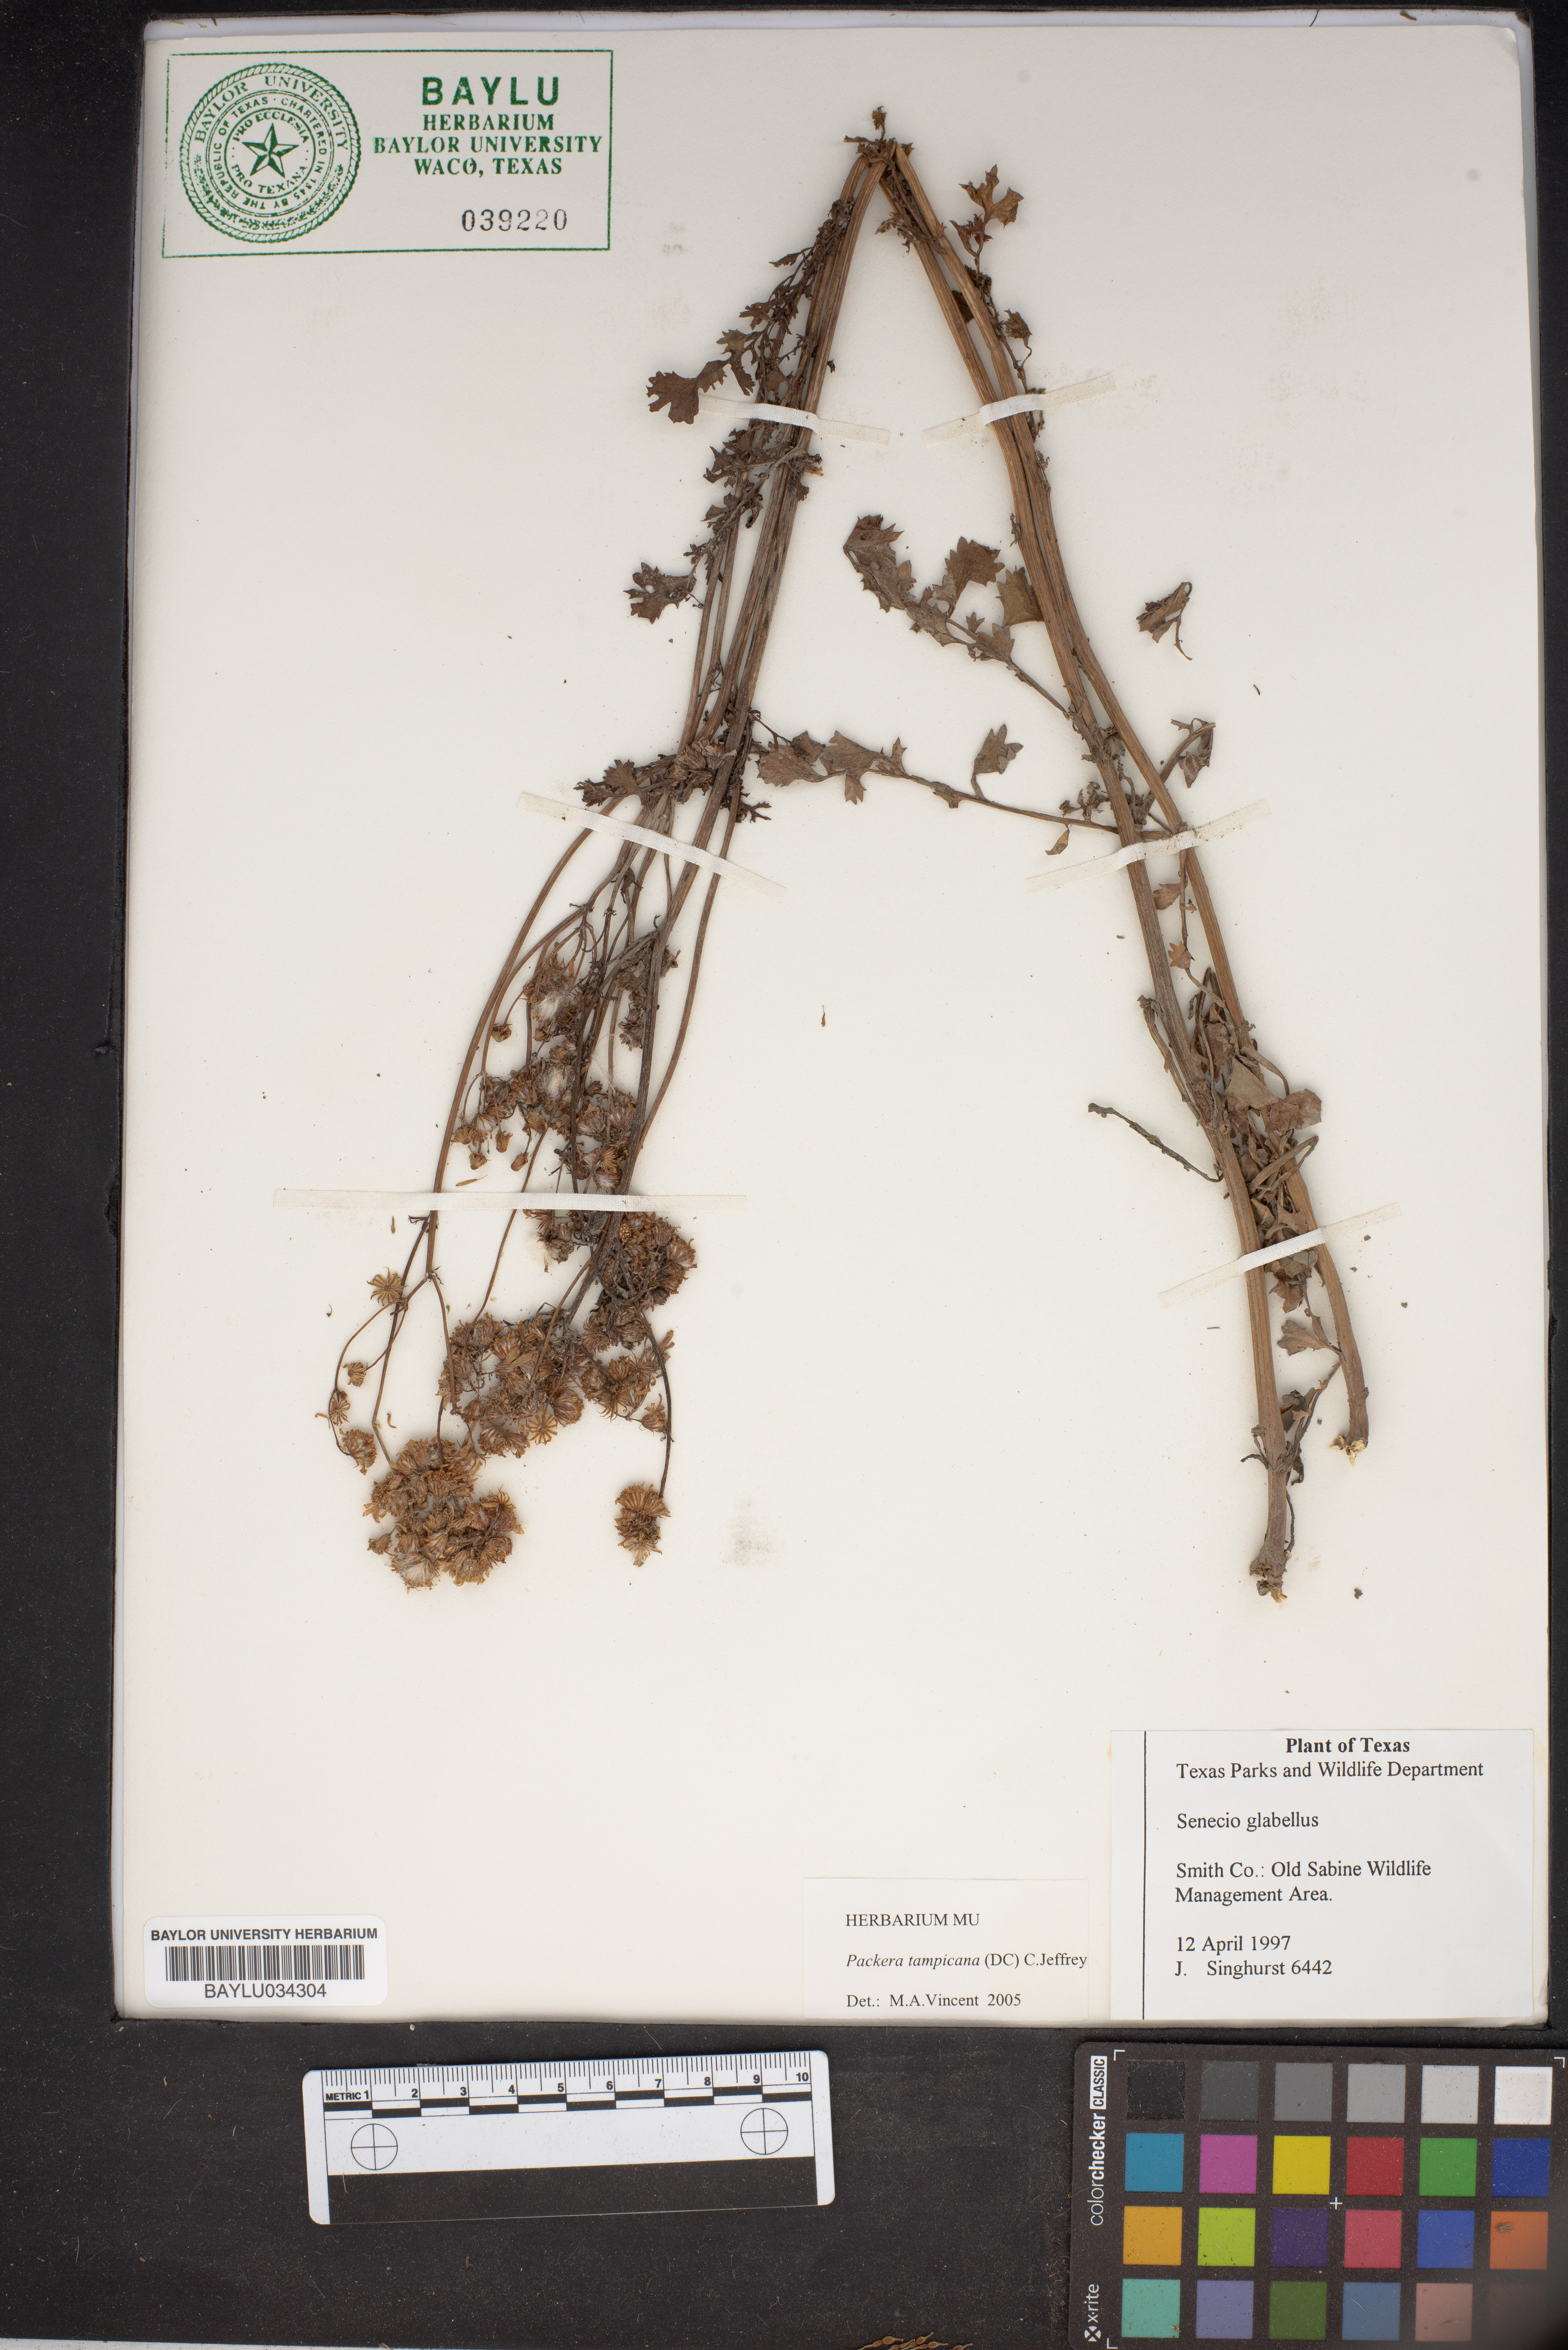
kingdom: Plantae
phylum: Tracheophyta
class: Magnoliopsida
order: Asterales
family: Asteraceae
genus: Tephroseris
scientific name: Tephroseris praticola
